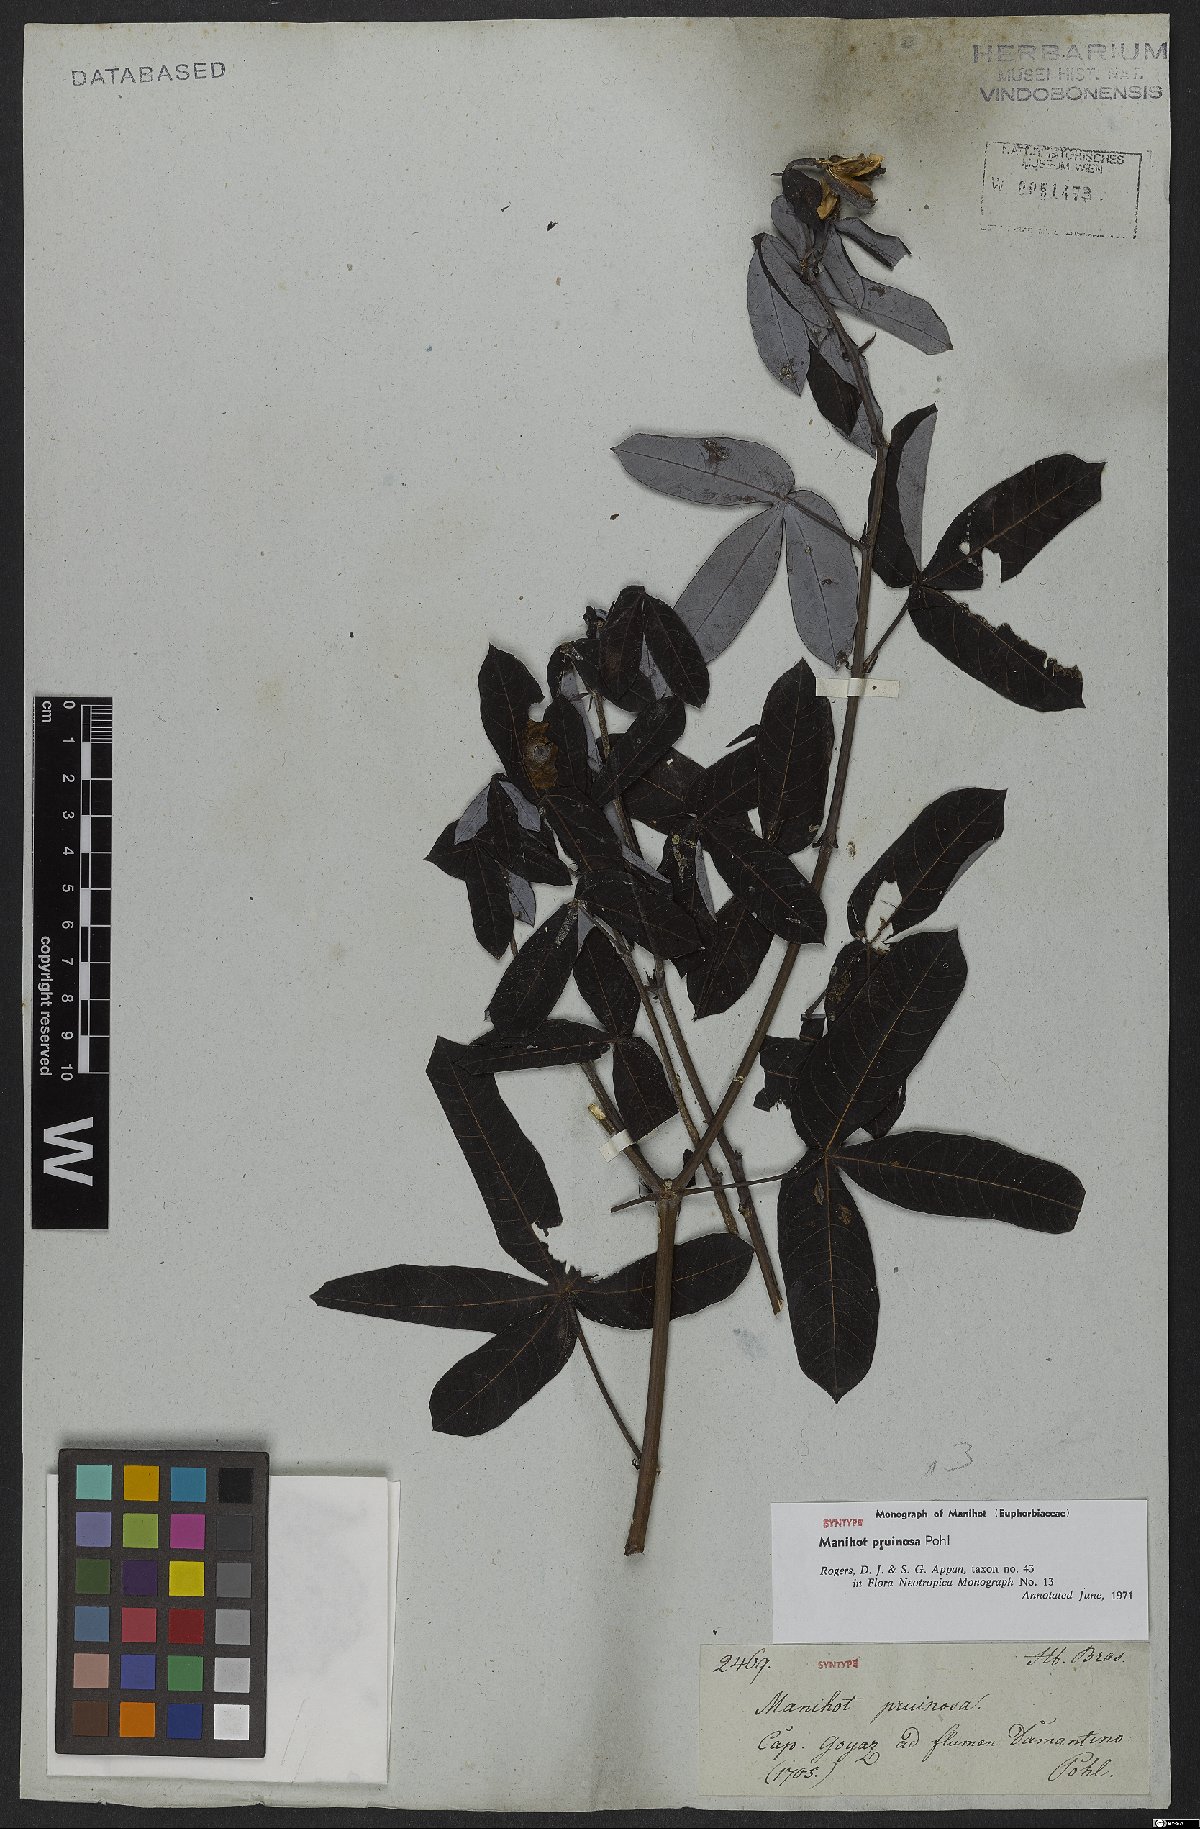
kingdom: Plantae
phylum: Tracheophyta
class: Magnoliopsida
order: Malpighiales
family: Euphorbiaceae
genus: Manihot
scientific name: Manihot pruinosa
